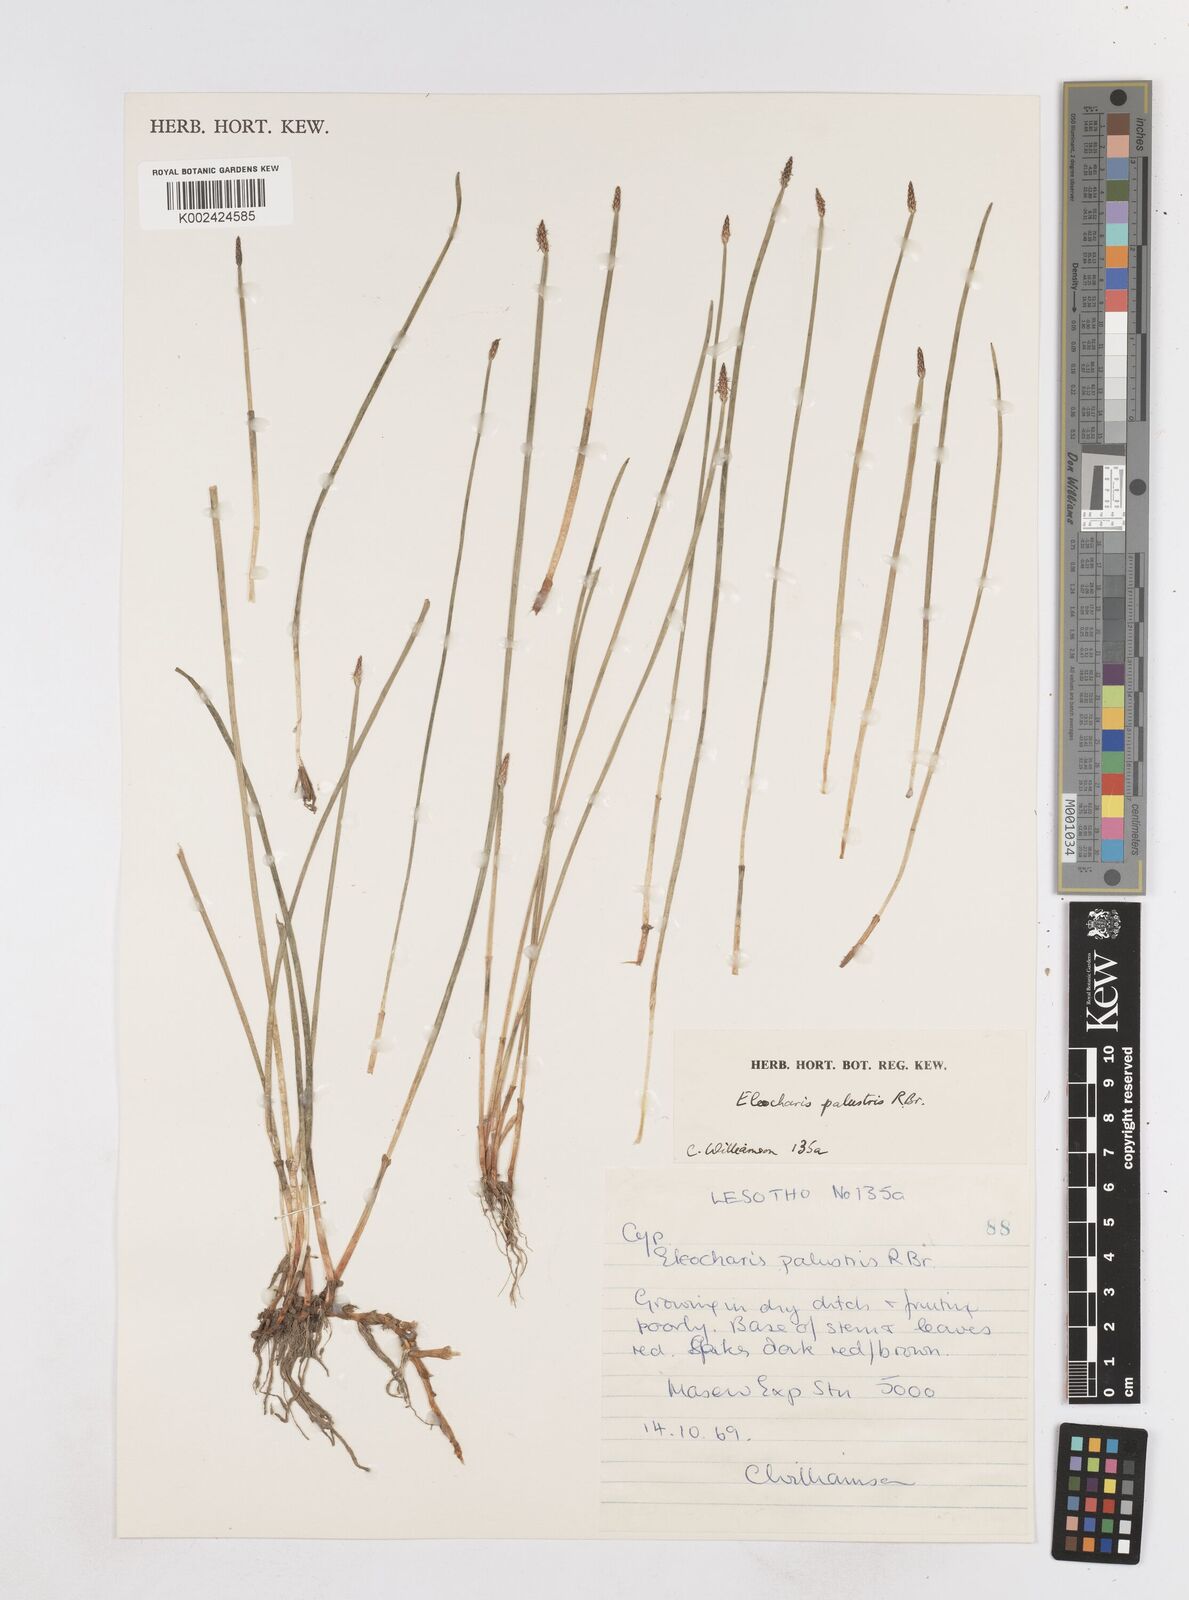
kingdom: Plantae
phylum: Tracheophyta
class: Liliopsida
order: Poales
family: Cyperaceae
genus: Eleocharis
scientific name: Eleocharis dregeana
